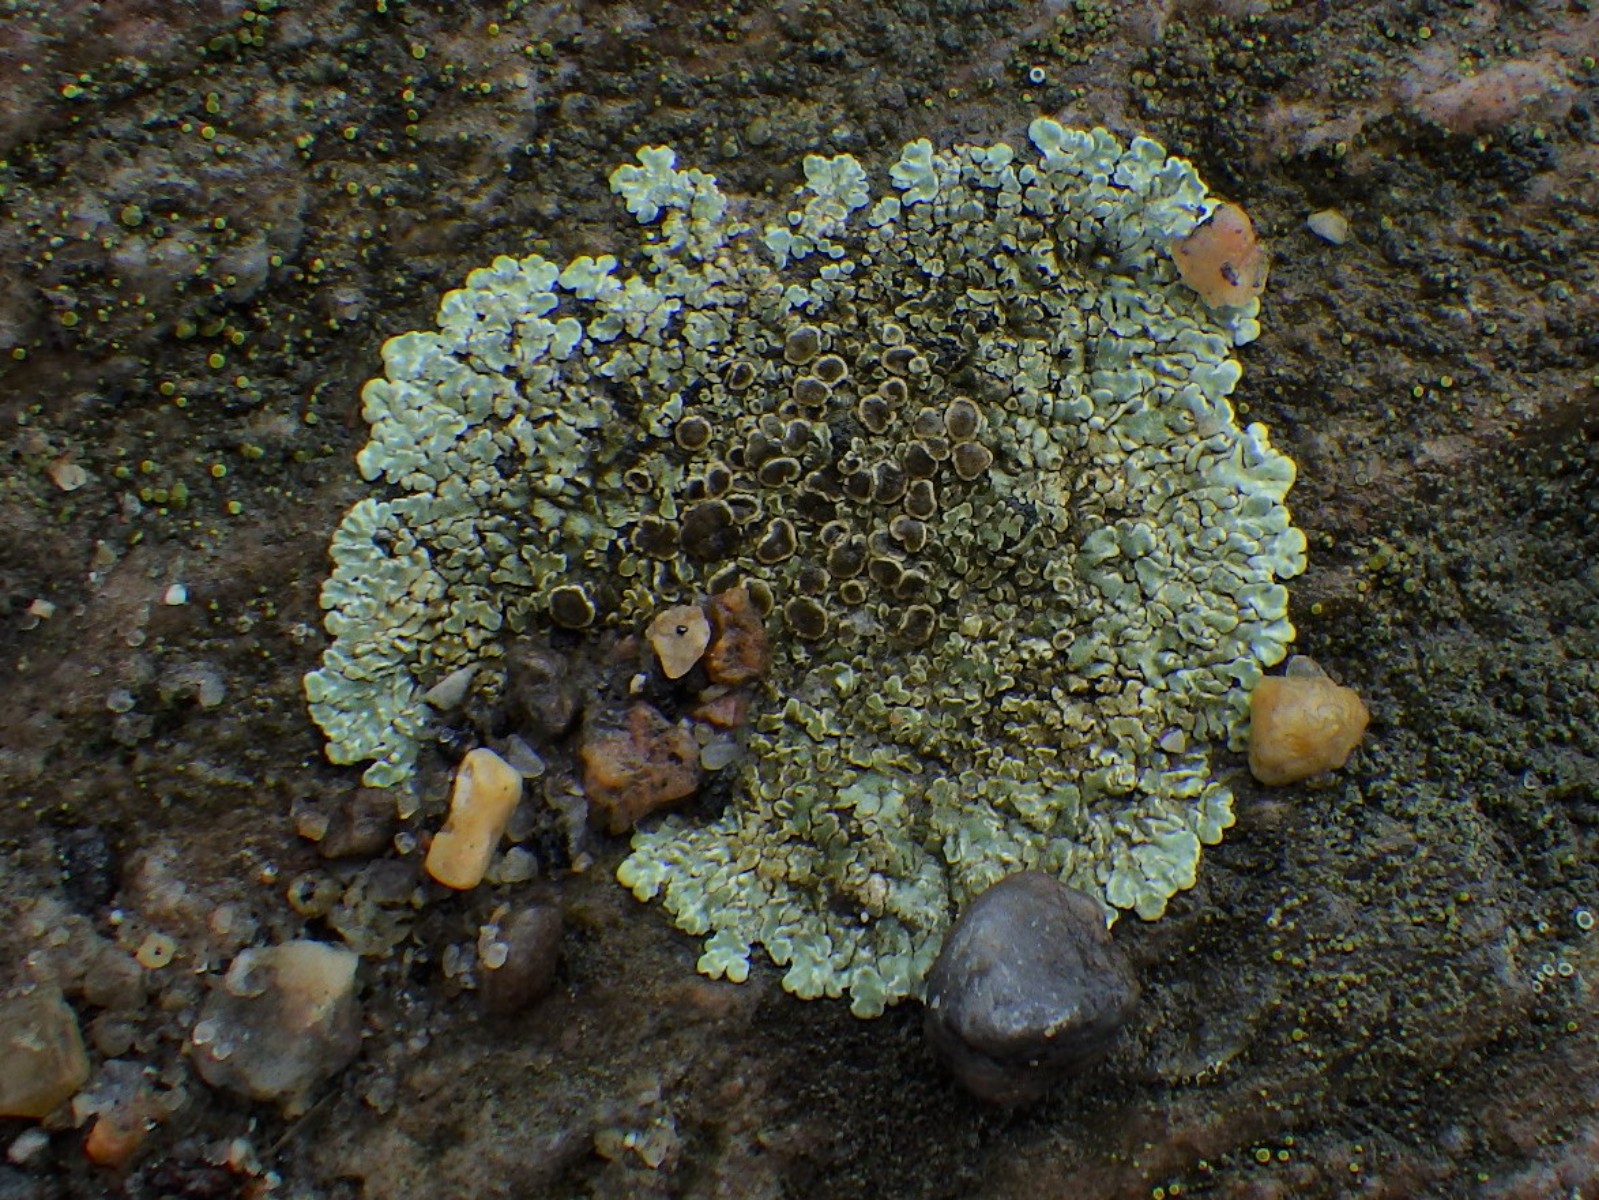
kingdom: Fungi
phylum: Ascomycota
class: Lecanoromycetes
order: Lecanorales
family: Lecanoraceae
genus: Protoparmeliopsis
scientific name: Protoparmeliopsis muralis
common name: randfliget kantskivelav
